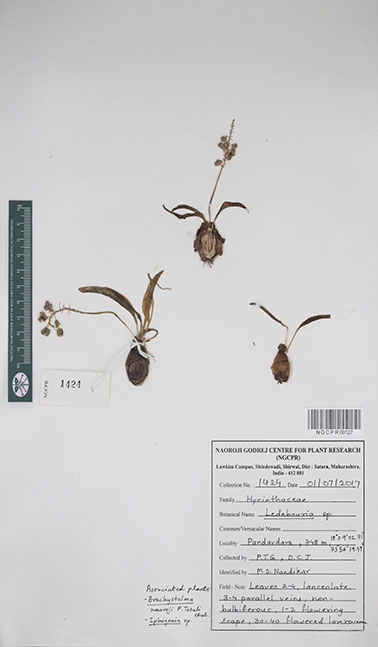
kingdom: Plantae
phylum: Tracheophyta
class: Liliopsida
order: Asparagales
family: Asparagaceae
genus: Ledebouria
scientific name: Ledebouria
